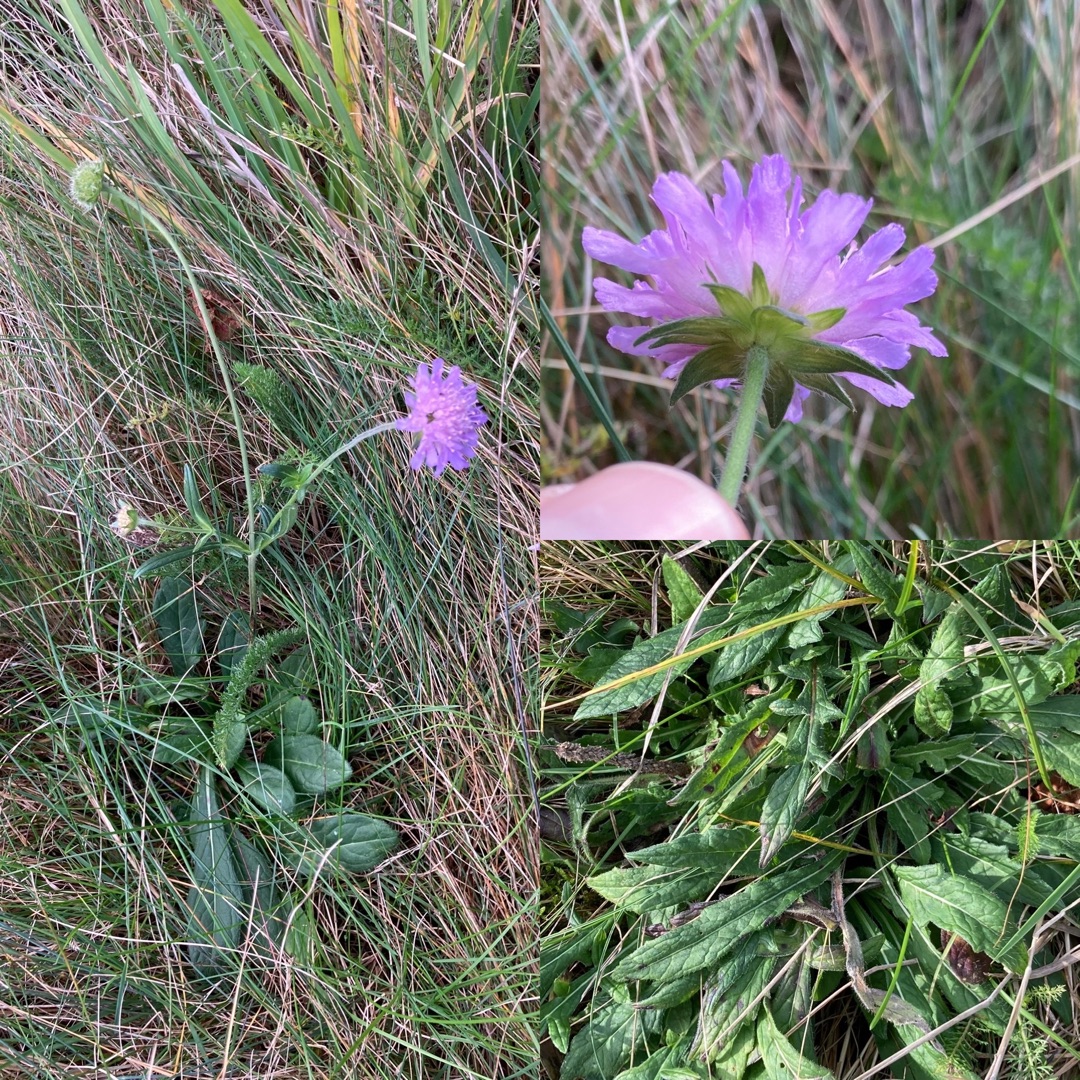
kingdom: Plantae
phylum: Tracheophyta
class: Magnoliopsida
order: Dipsacales
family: Caprifoliaceae
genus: Knautia
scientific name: Knautia arvensis
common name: Blåhat
